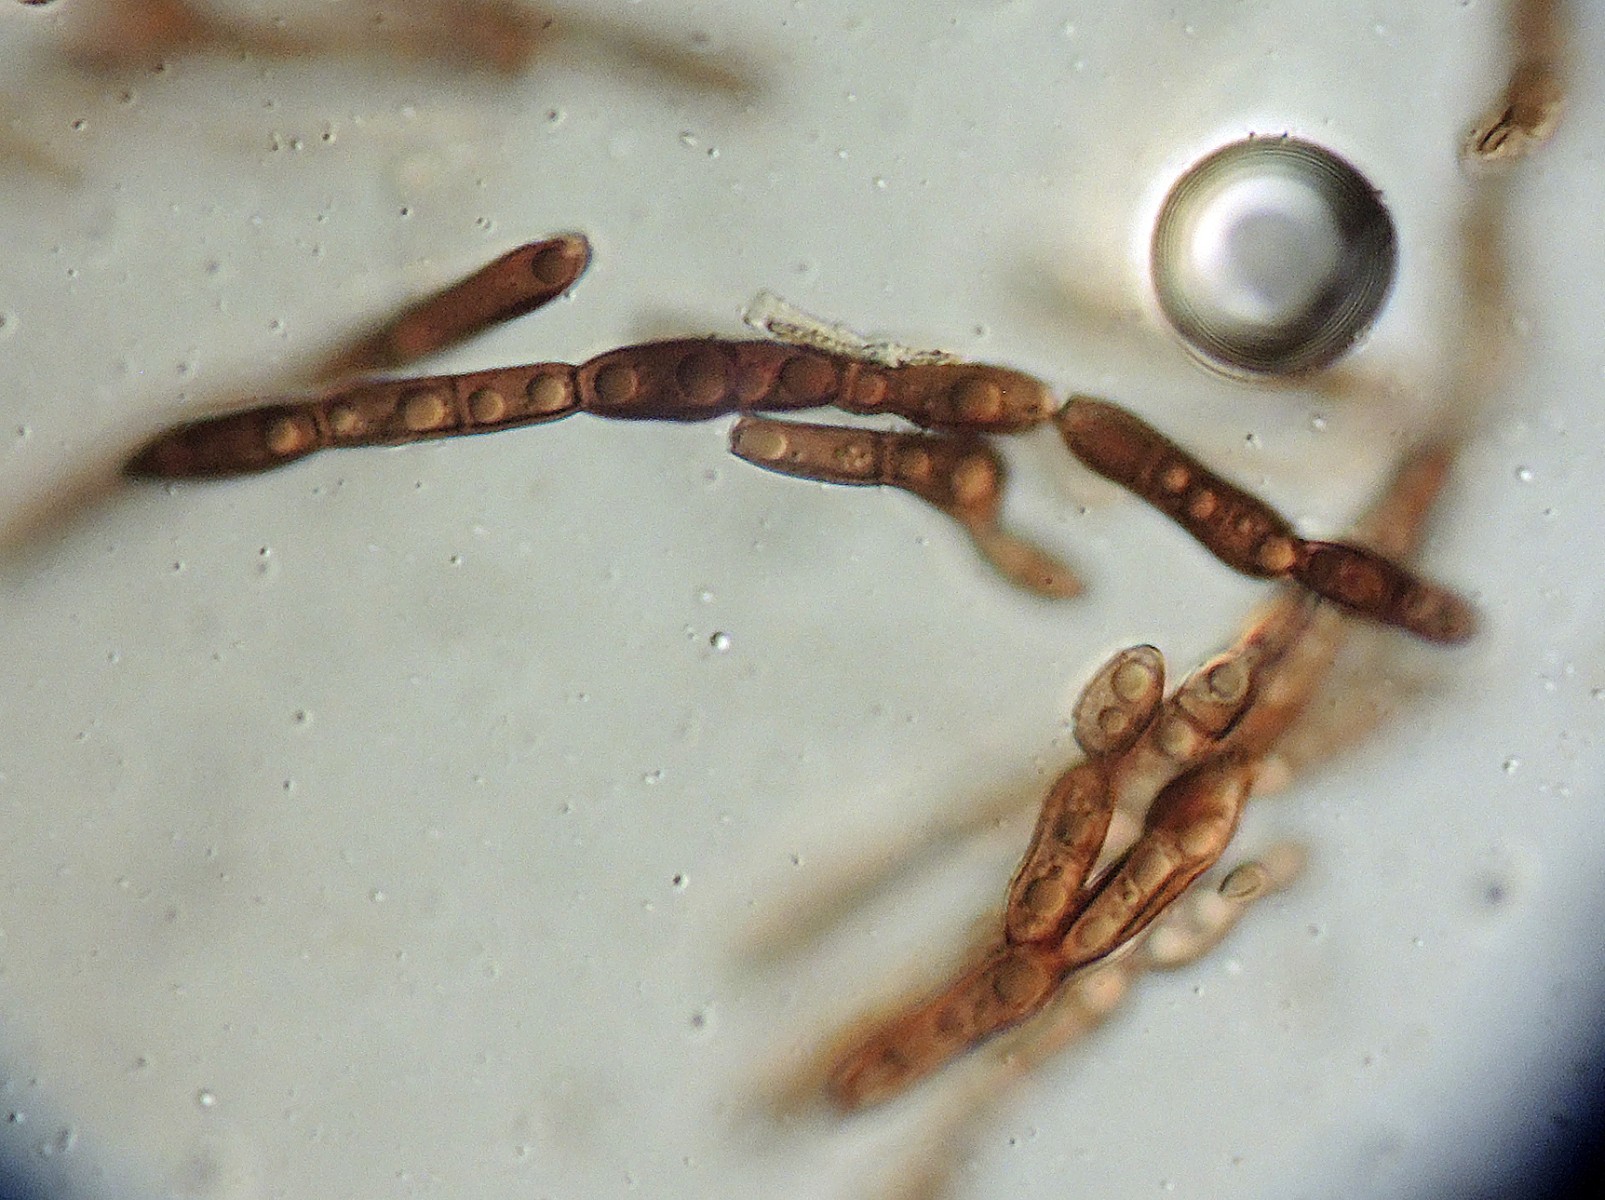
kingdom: Fungi
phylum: Ascomycota
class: Dothideomycetes
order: Pleosporales
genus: Sporidesmium
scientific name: Sporidesmium tetracoilum
